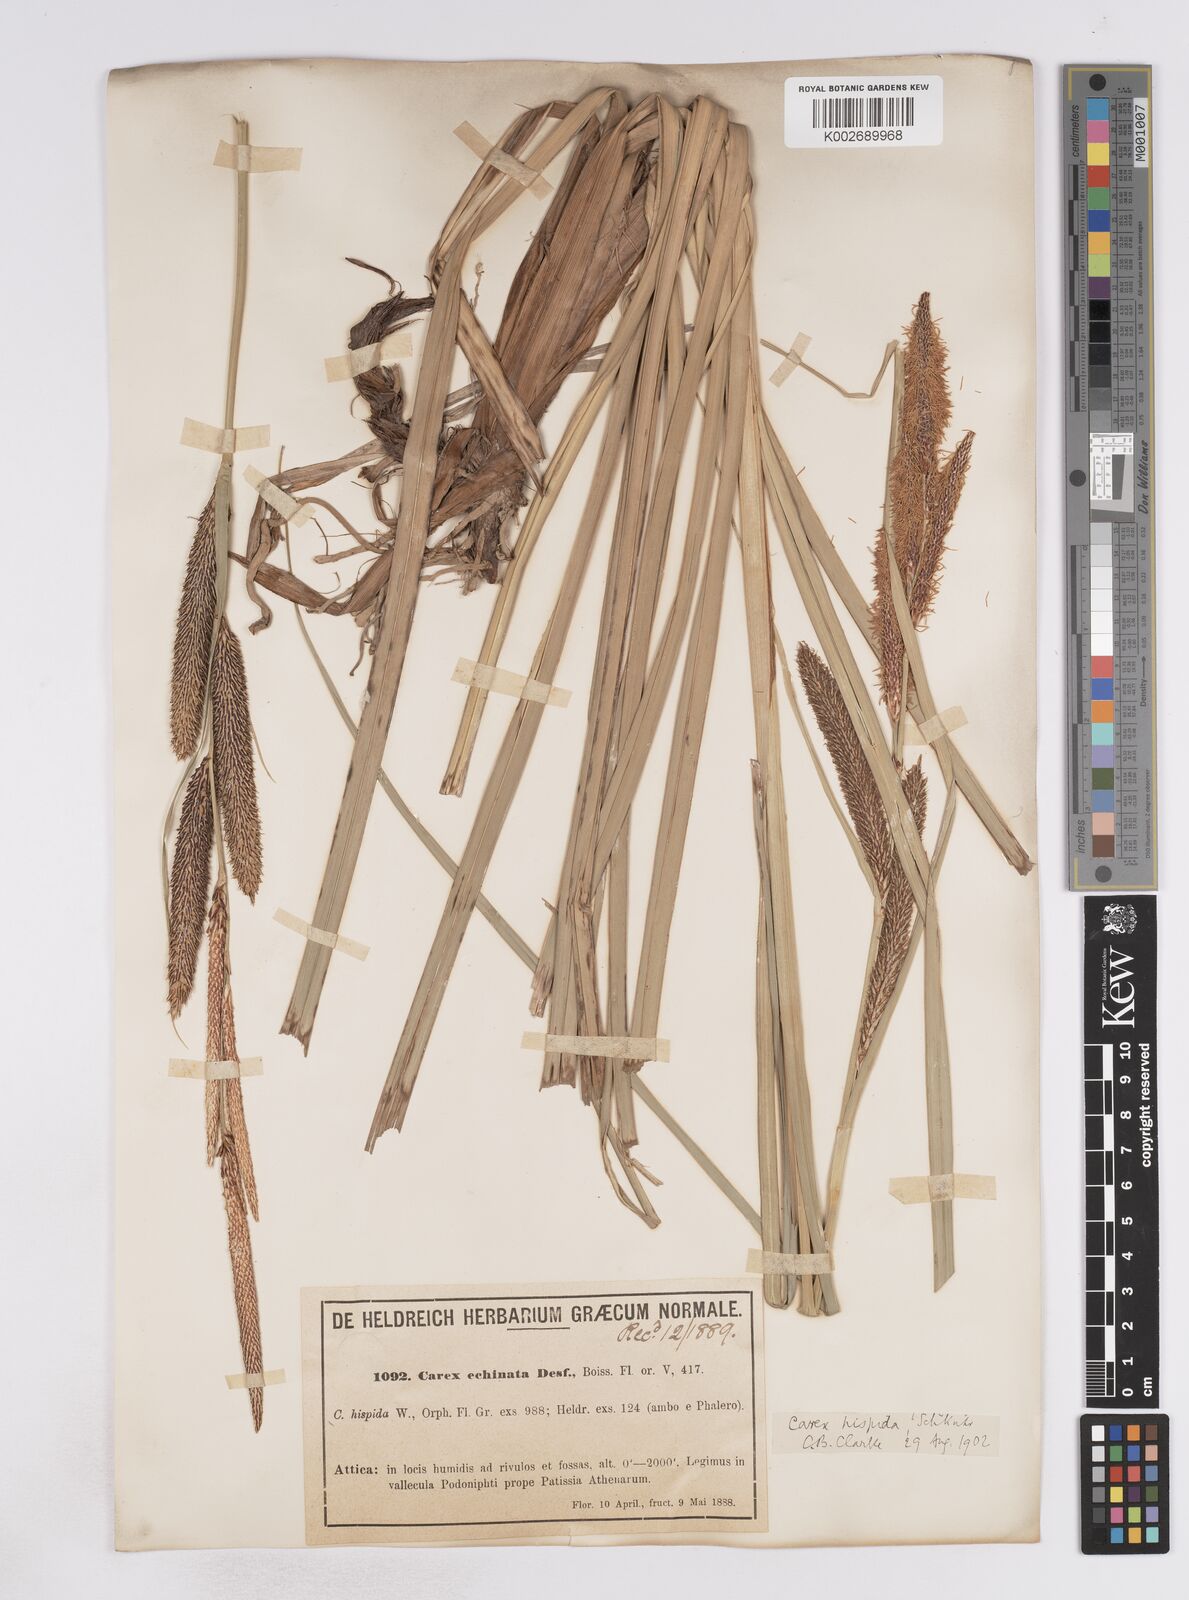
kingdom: Plantae
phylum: Tracheophyta
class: Liliopsida
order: Poales
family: Cyperaceae
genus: Carex
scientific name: Carex hispida
